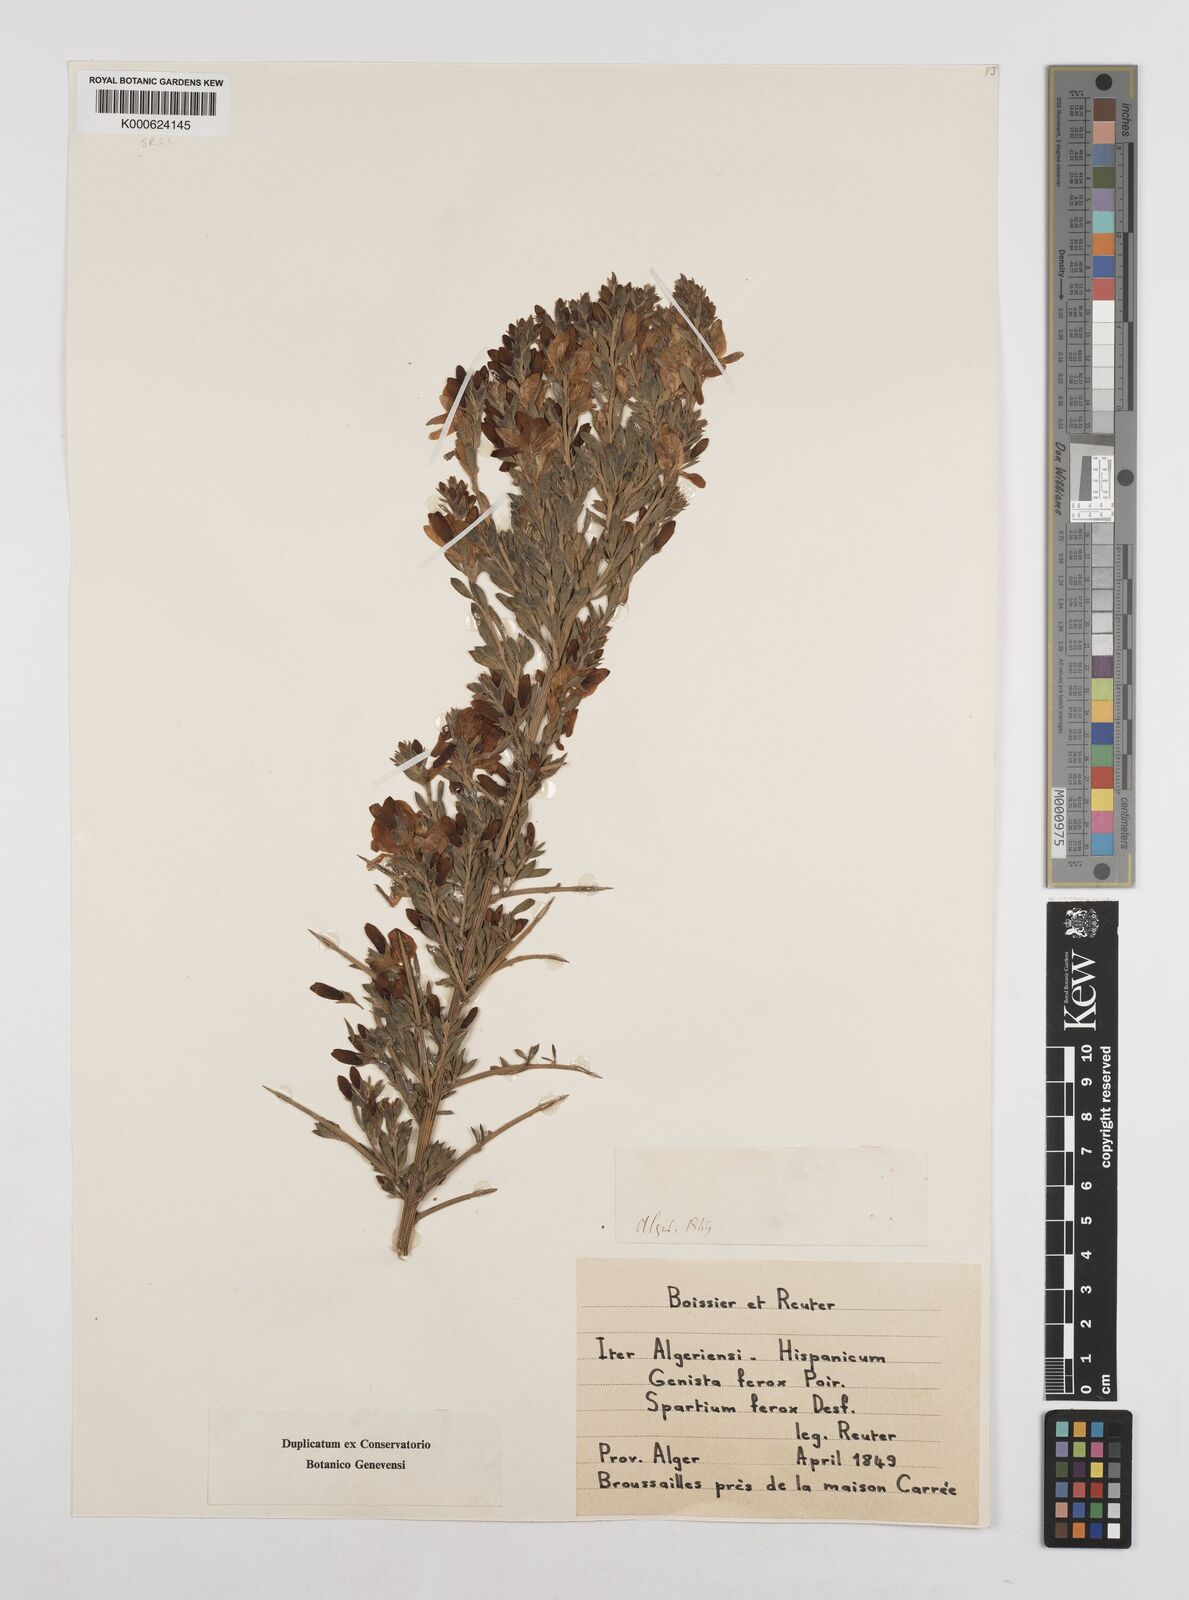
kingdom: Plantae
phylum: Tracheophyta
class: Magnoliopsida
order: Fabales
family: Fabaceae
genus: Genista
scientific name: Genista ferox
